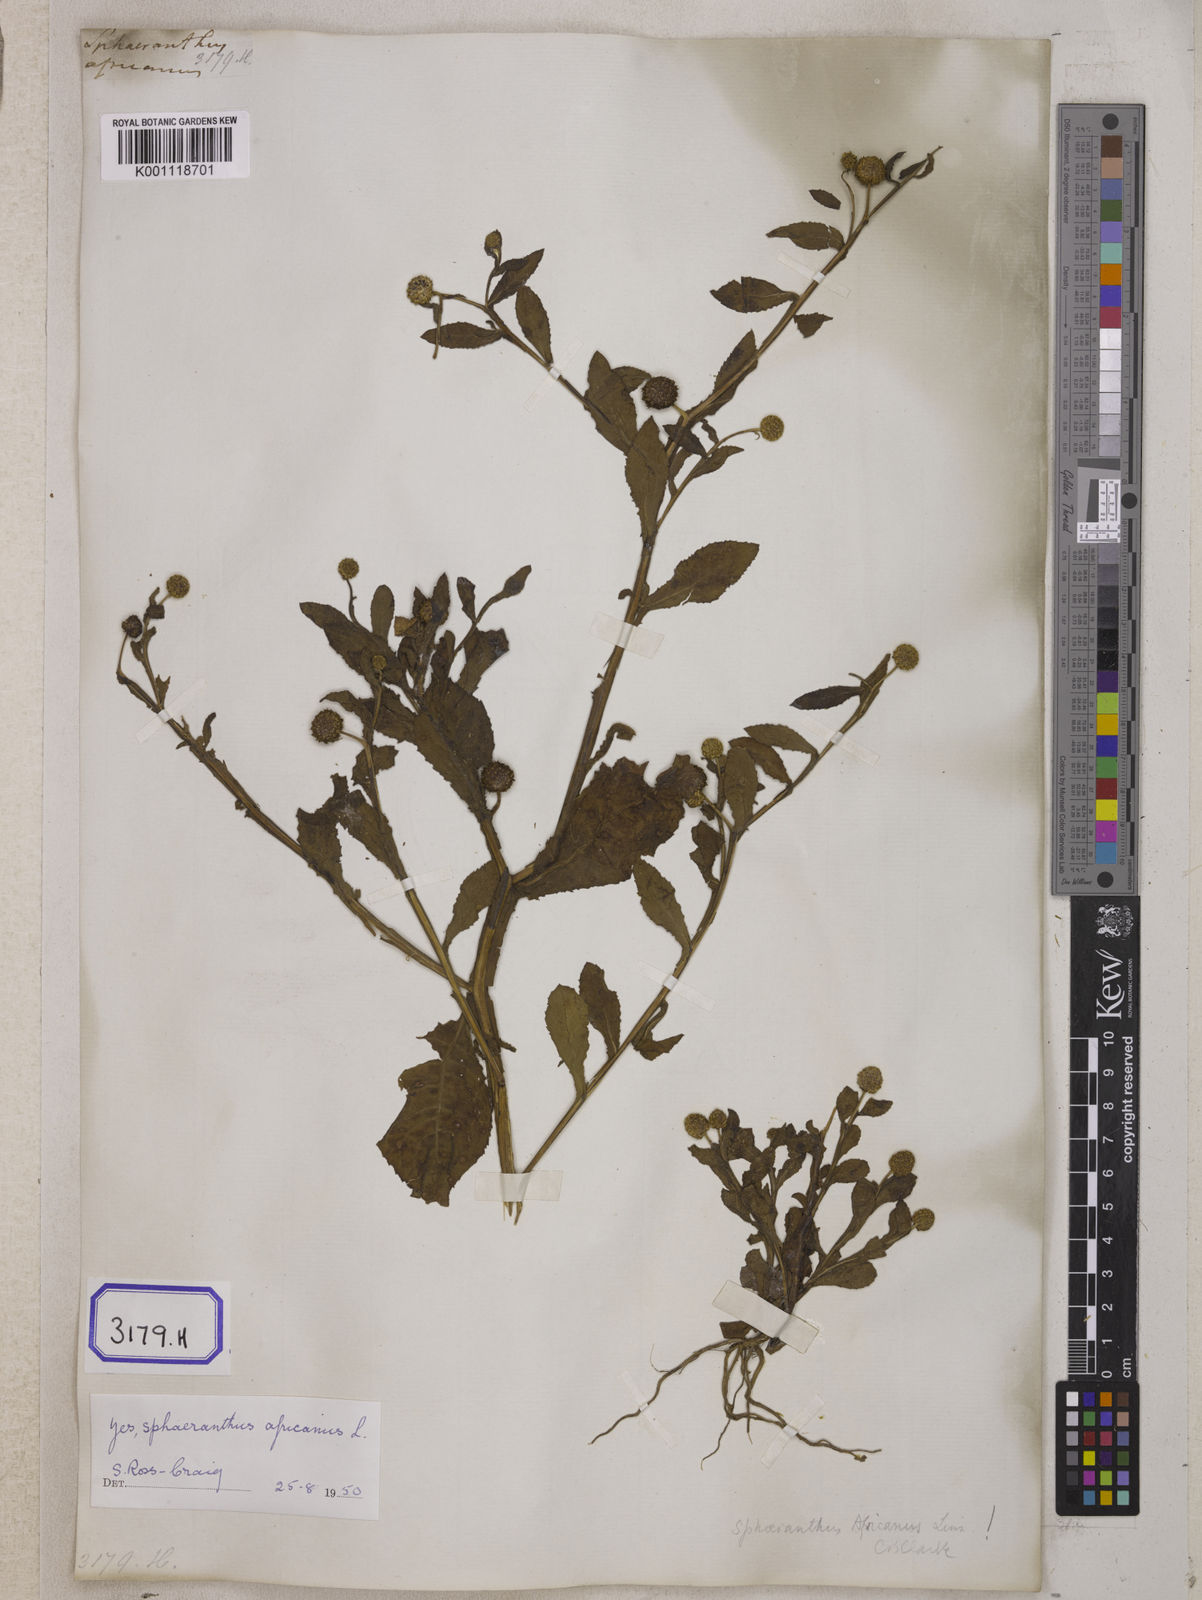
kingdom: Plantae
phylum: Tracheophyta
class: Magnoliopsida
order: Asterales
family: Asteraceae
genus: Sphaeranthus
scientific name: Sphaeranthus senegalensis
